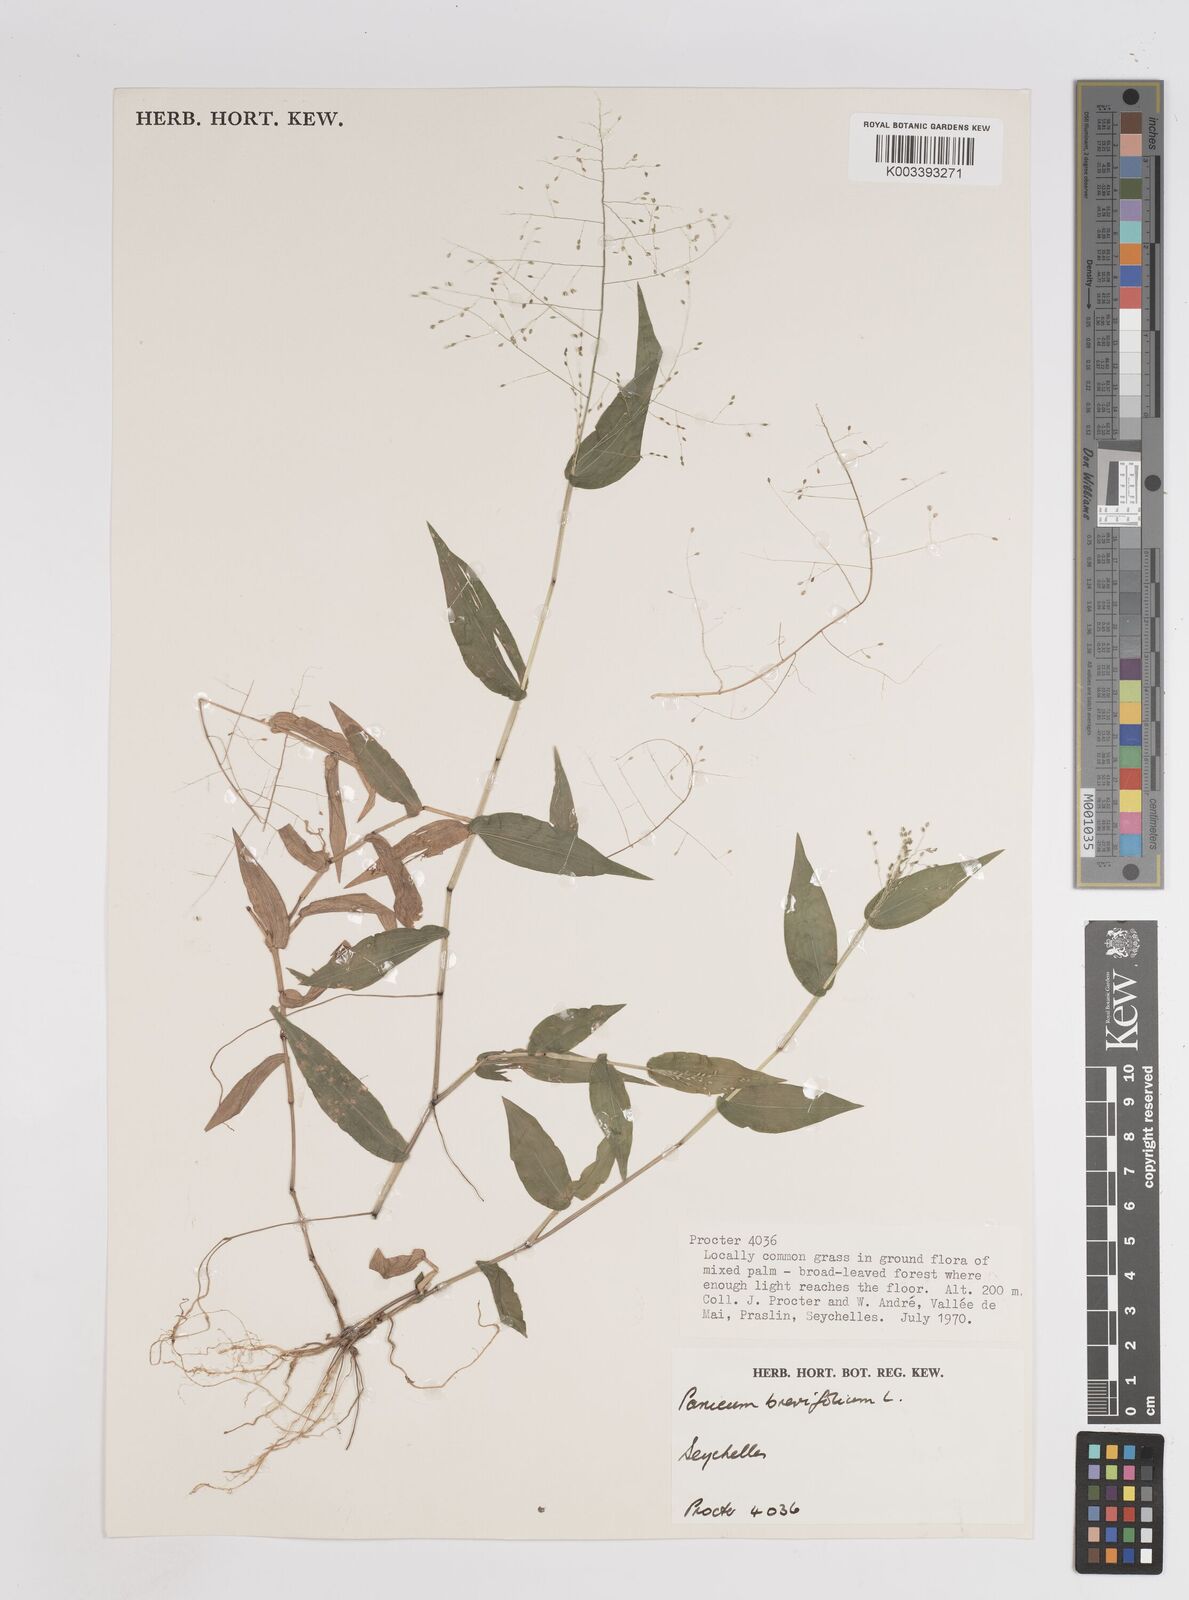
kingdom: Plantae
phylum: Tracheophyta
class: Liliopsida
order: Poales
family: Poaceae
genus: Panicum
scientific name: Panicum brevifolium
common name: Shortleaf panic grass
